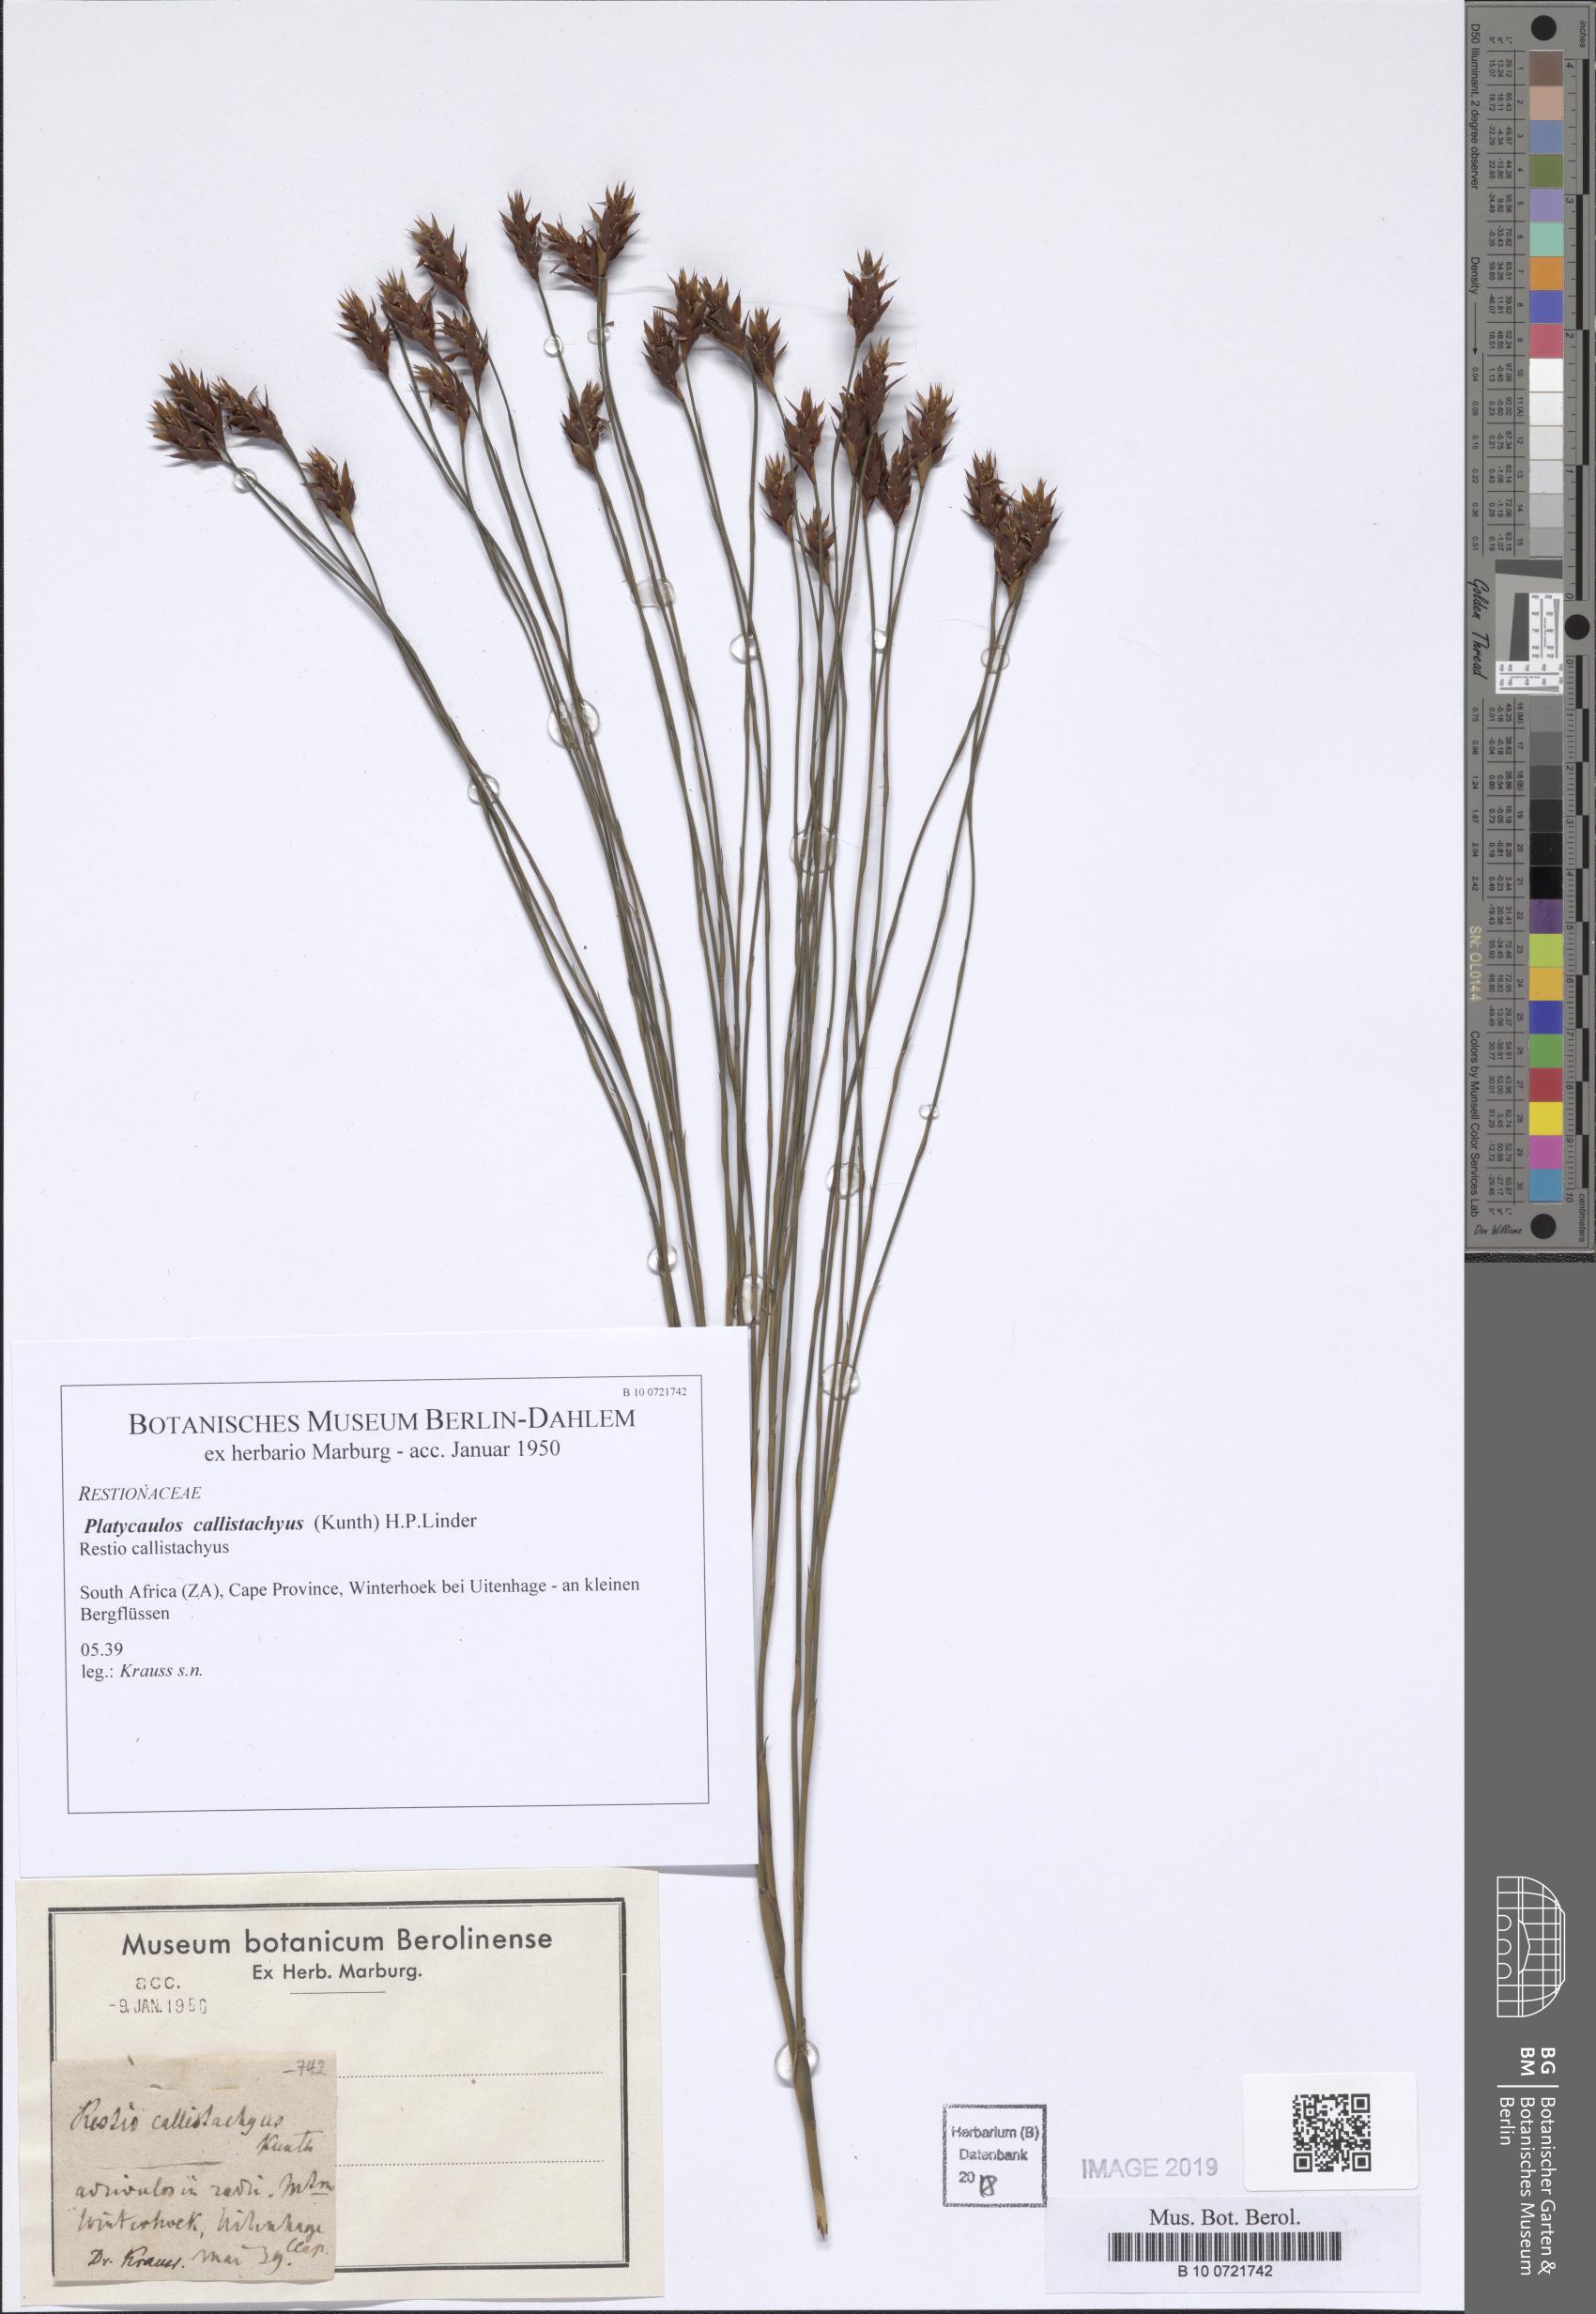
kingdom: Plantae
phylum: Tracheophyta
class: Liliopsida
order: Poales
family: Restionaceae
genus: Platycaulos
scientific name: Platycaulos callistachyus
